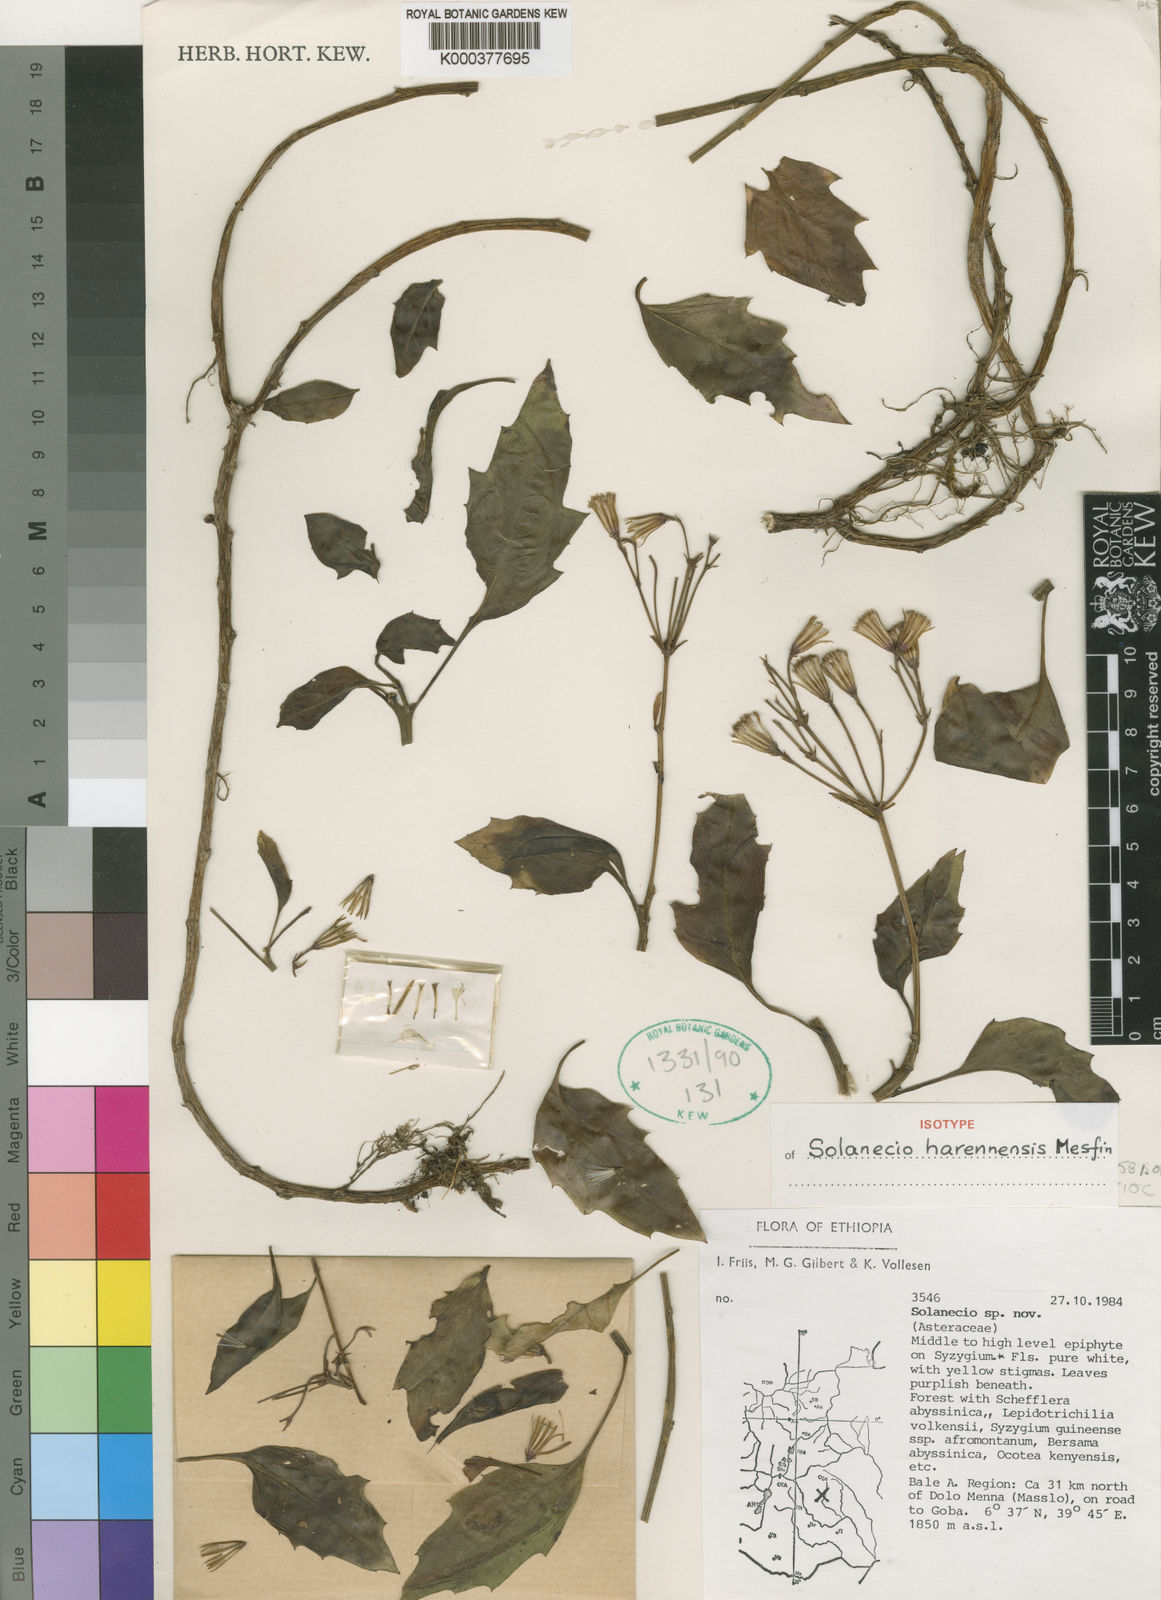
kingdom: Plantae
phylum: Tracheophyta
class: Magnoliopsida
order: Asterales
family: Asteraceae
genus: Solanecio
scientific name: Solanecio harennensis
